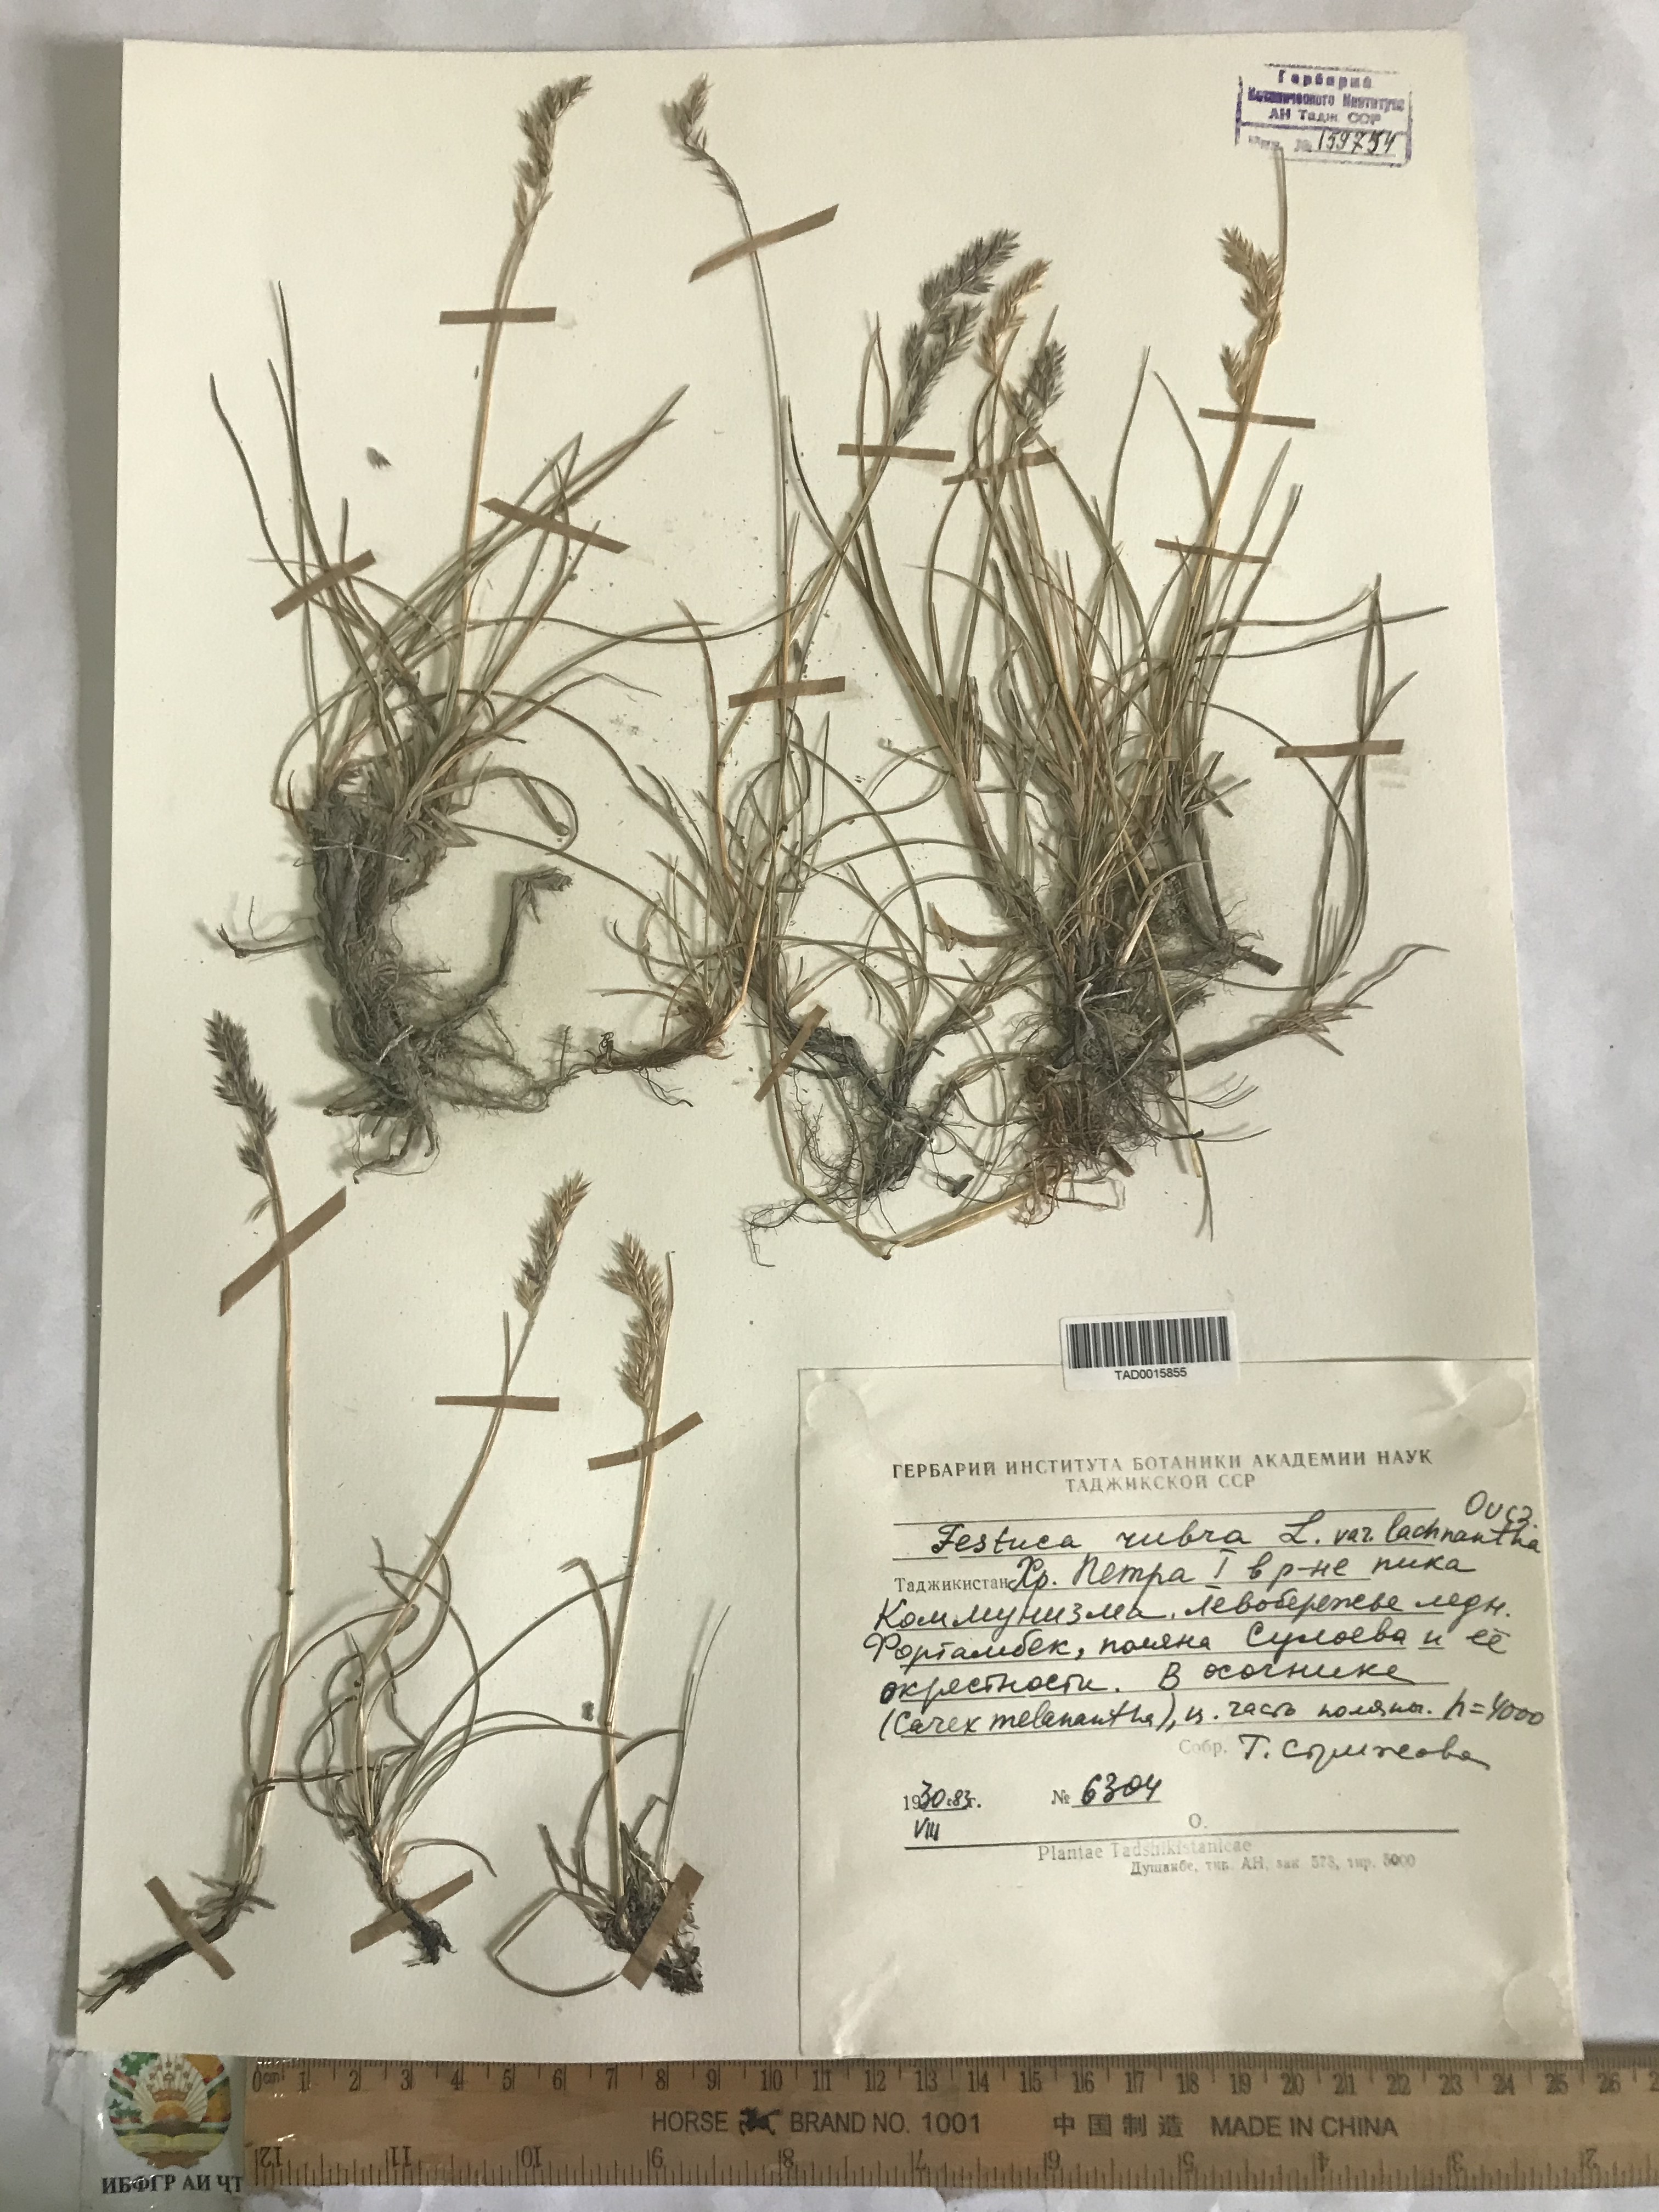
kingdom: Plantae
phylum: Tracheophyta
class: Liliopsida
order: Poales
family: Poaceae
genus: Festuca
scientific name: Festuca rubra
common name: Red fescue
